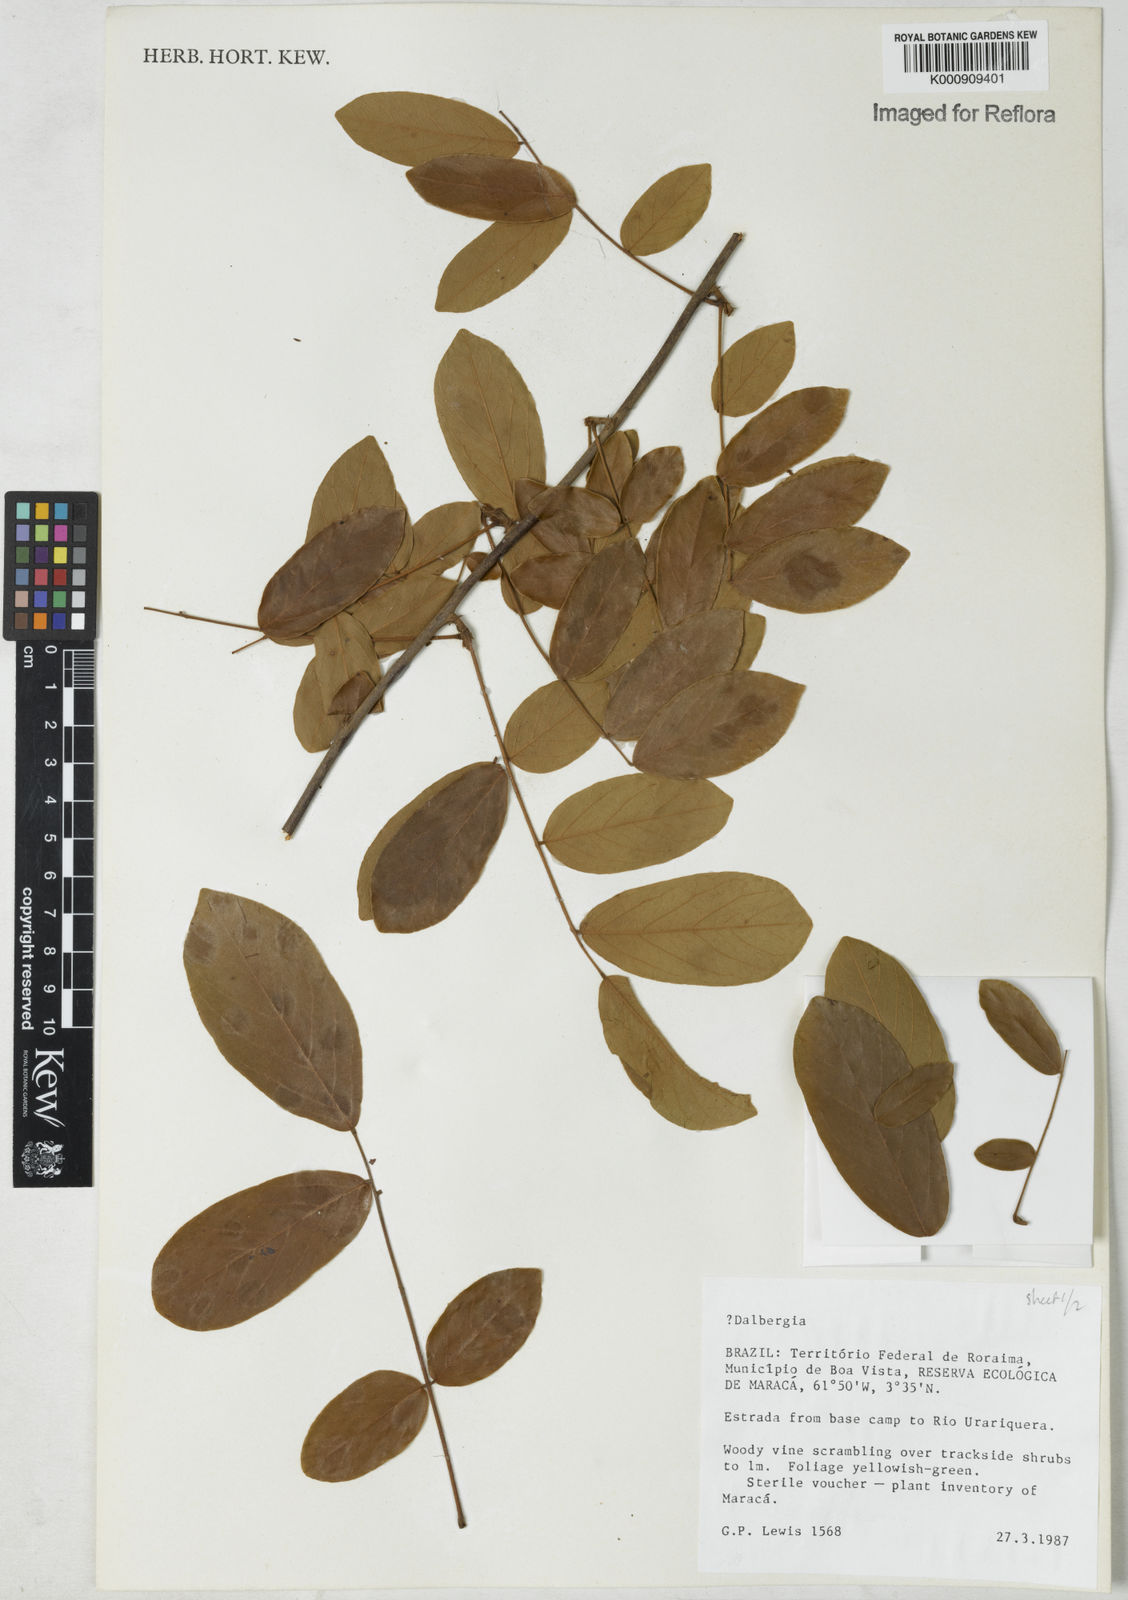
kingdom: Plantae
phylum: Tracheophyta
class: Magnoliopsida
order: Fabales
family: Fabaceae
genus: Dalbergia
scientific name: Dalbergia
